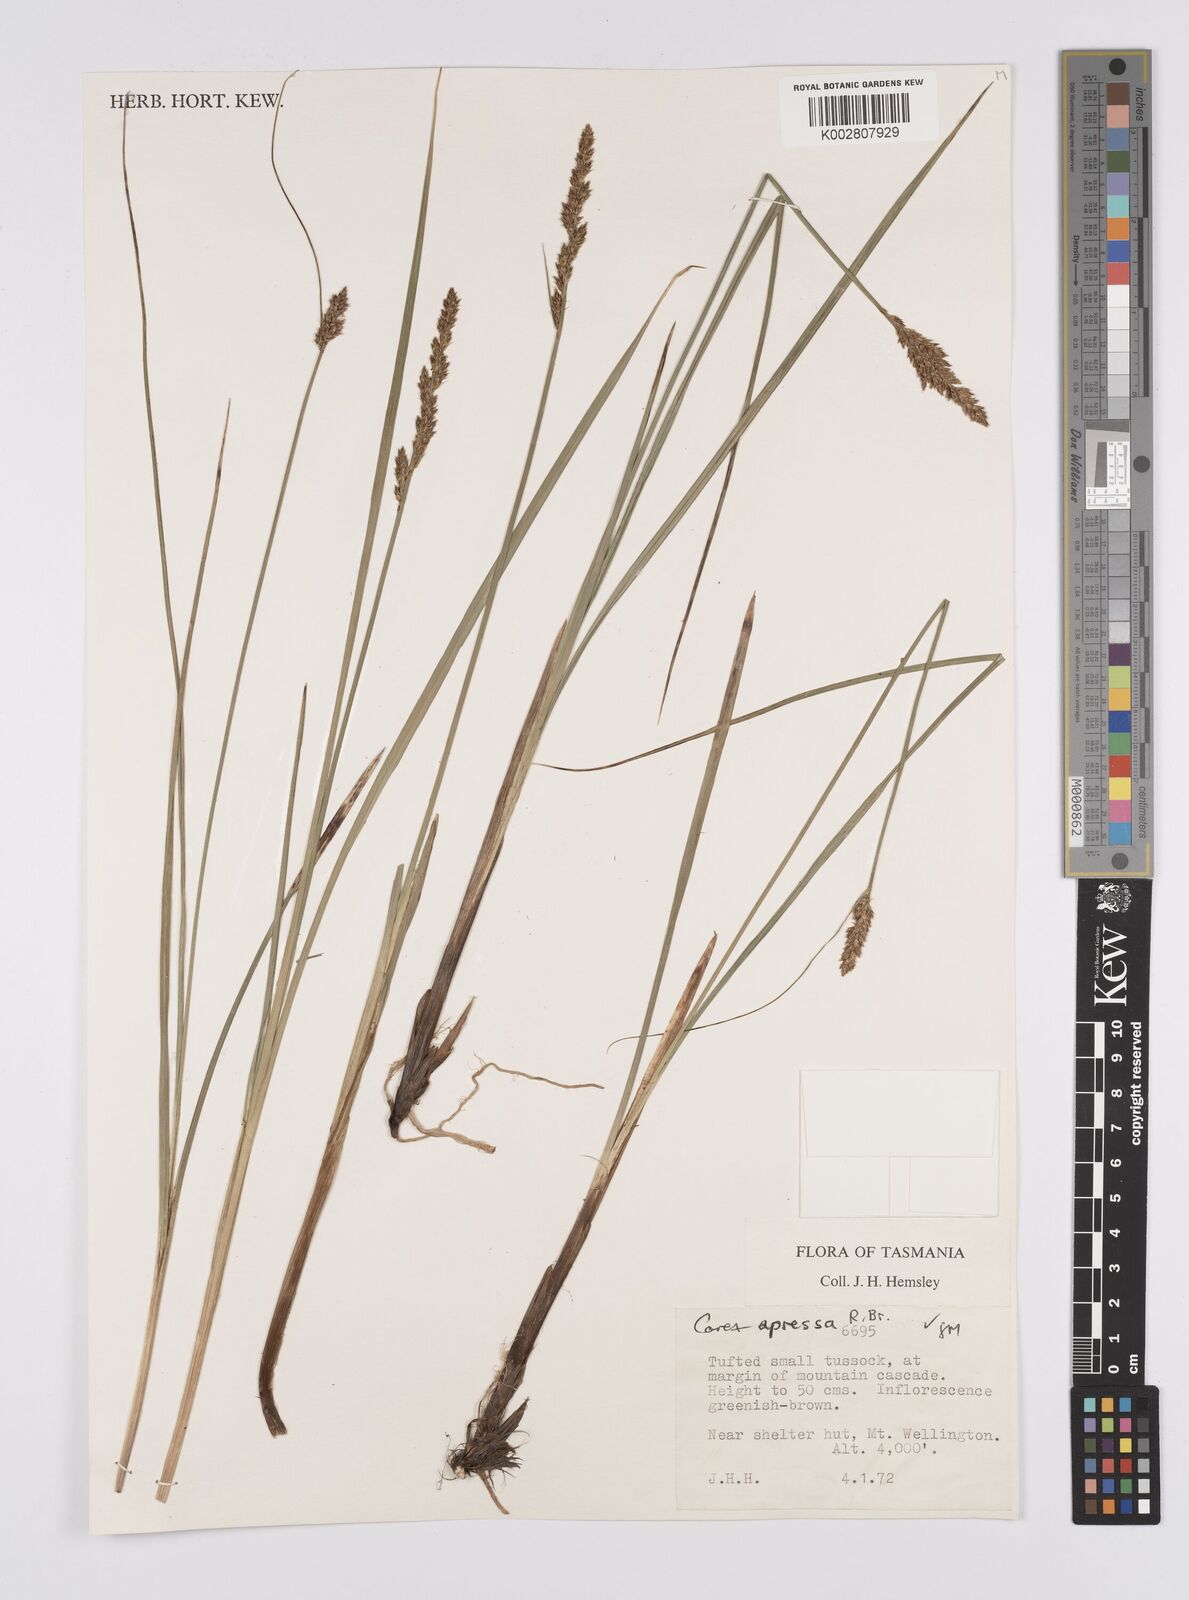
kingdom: Plantae
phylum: Tracheophyta
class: Liliopsida
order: Poales
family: Cyperaceae
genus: Carex
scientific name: Carex appressa
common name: Tussock sedge
